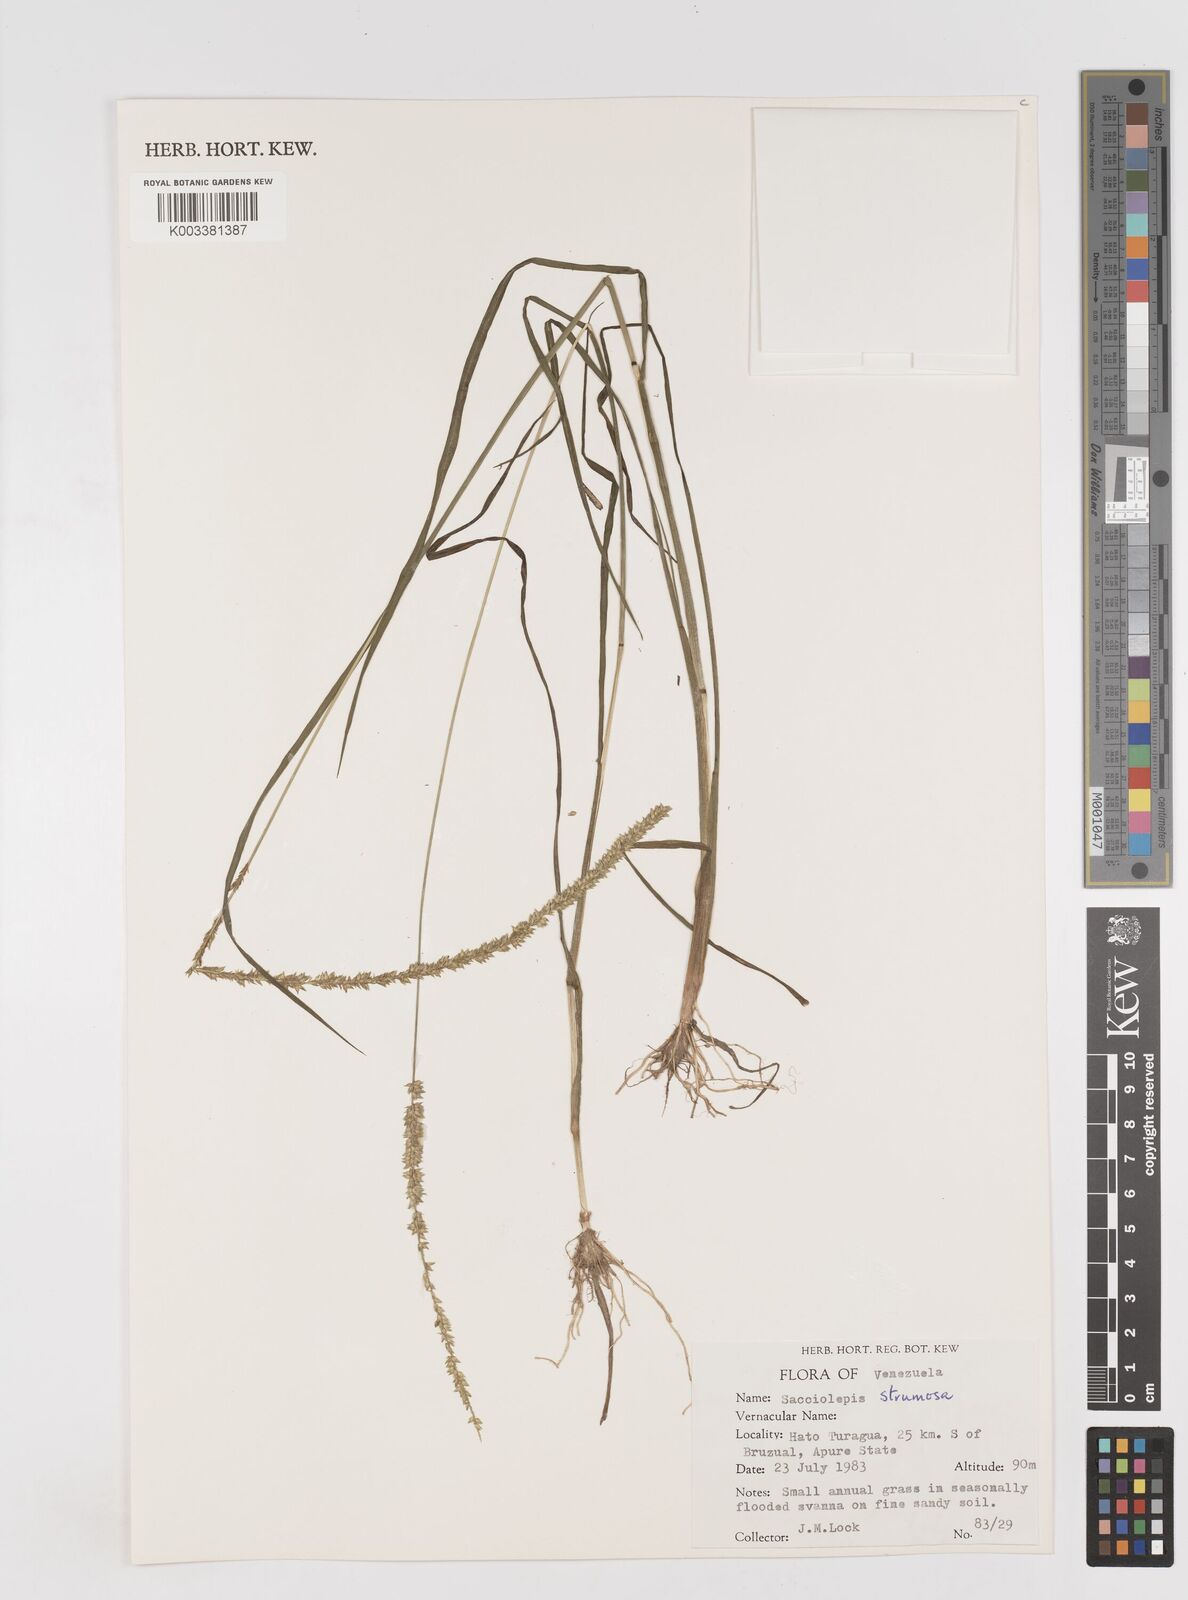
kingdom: Plantae
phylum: Tracheophyta
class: Liliopsida
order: Poales
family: Poaceae
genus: Sacciolepis
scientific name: Sacciolepis vilvoides
